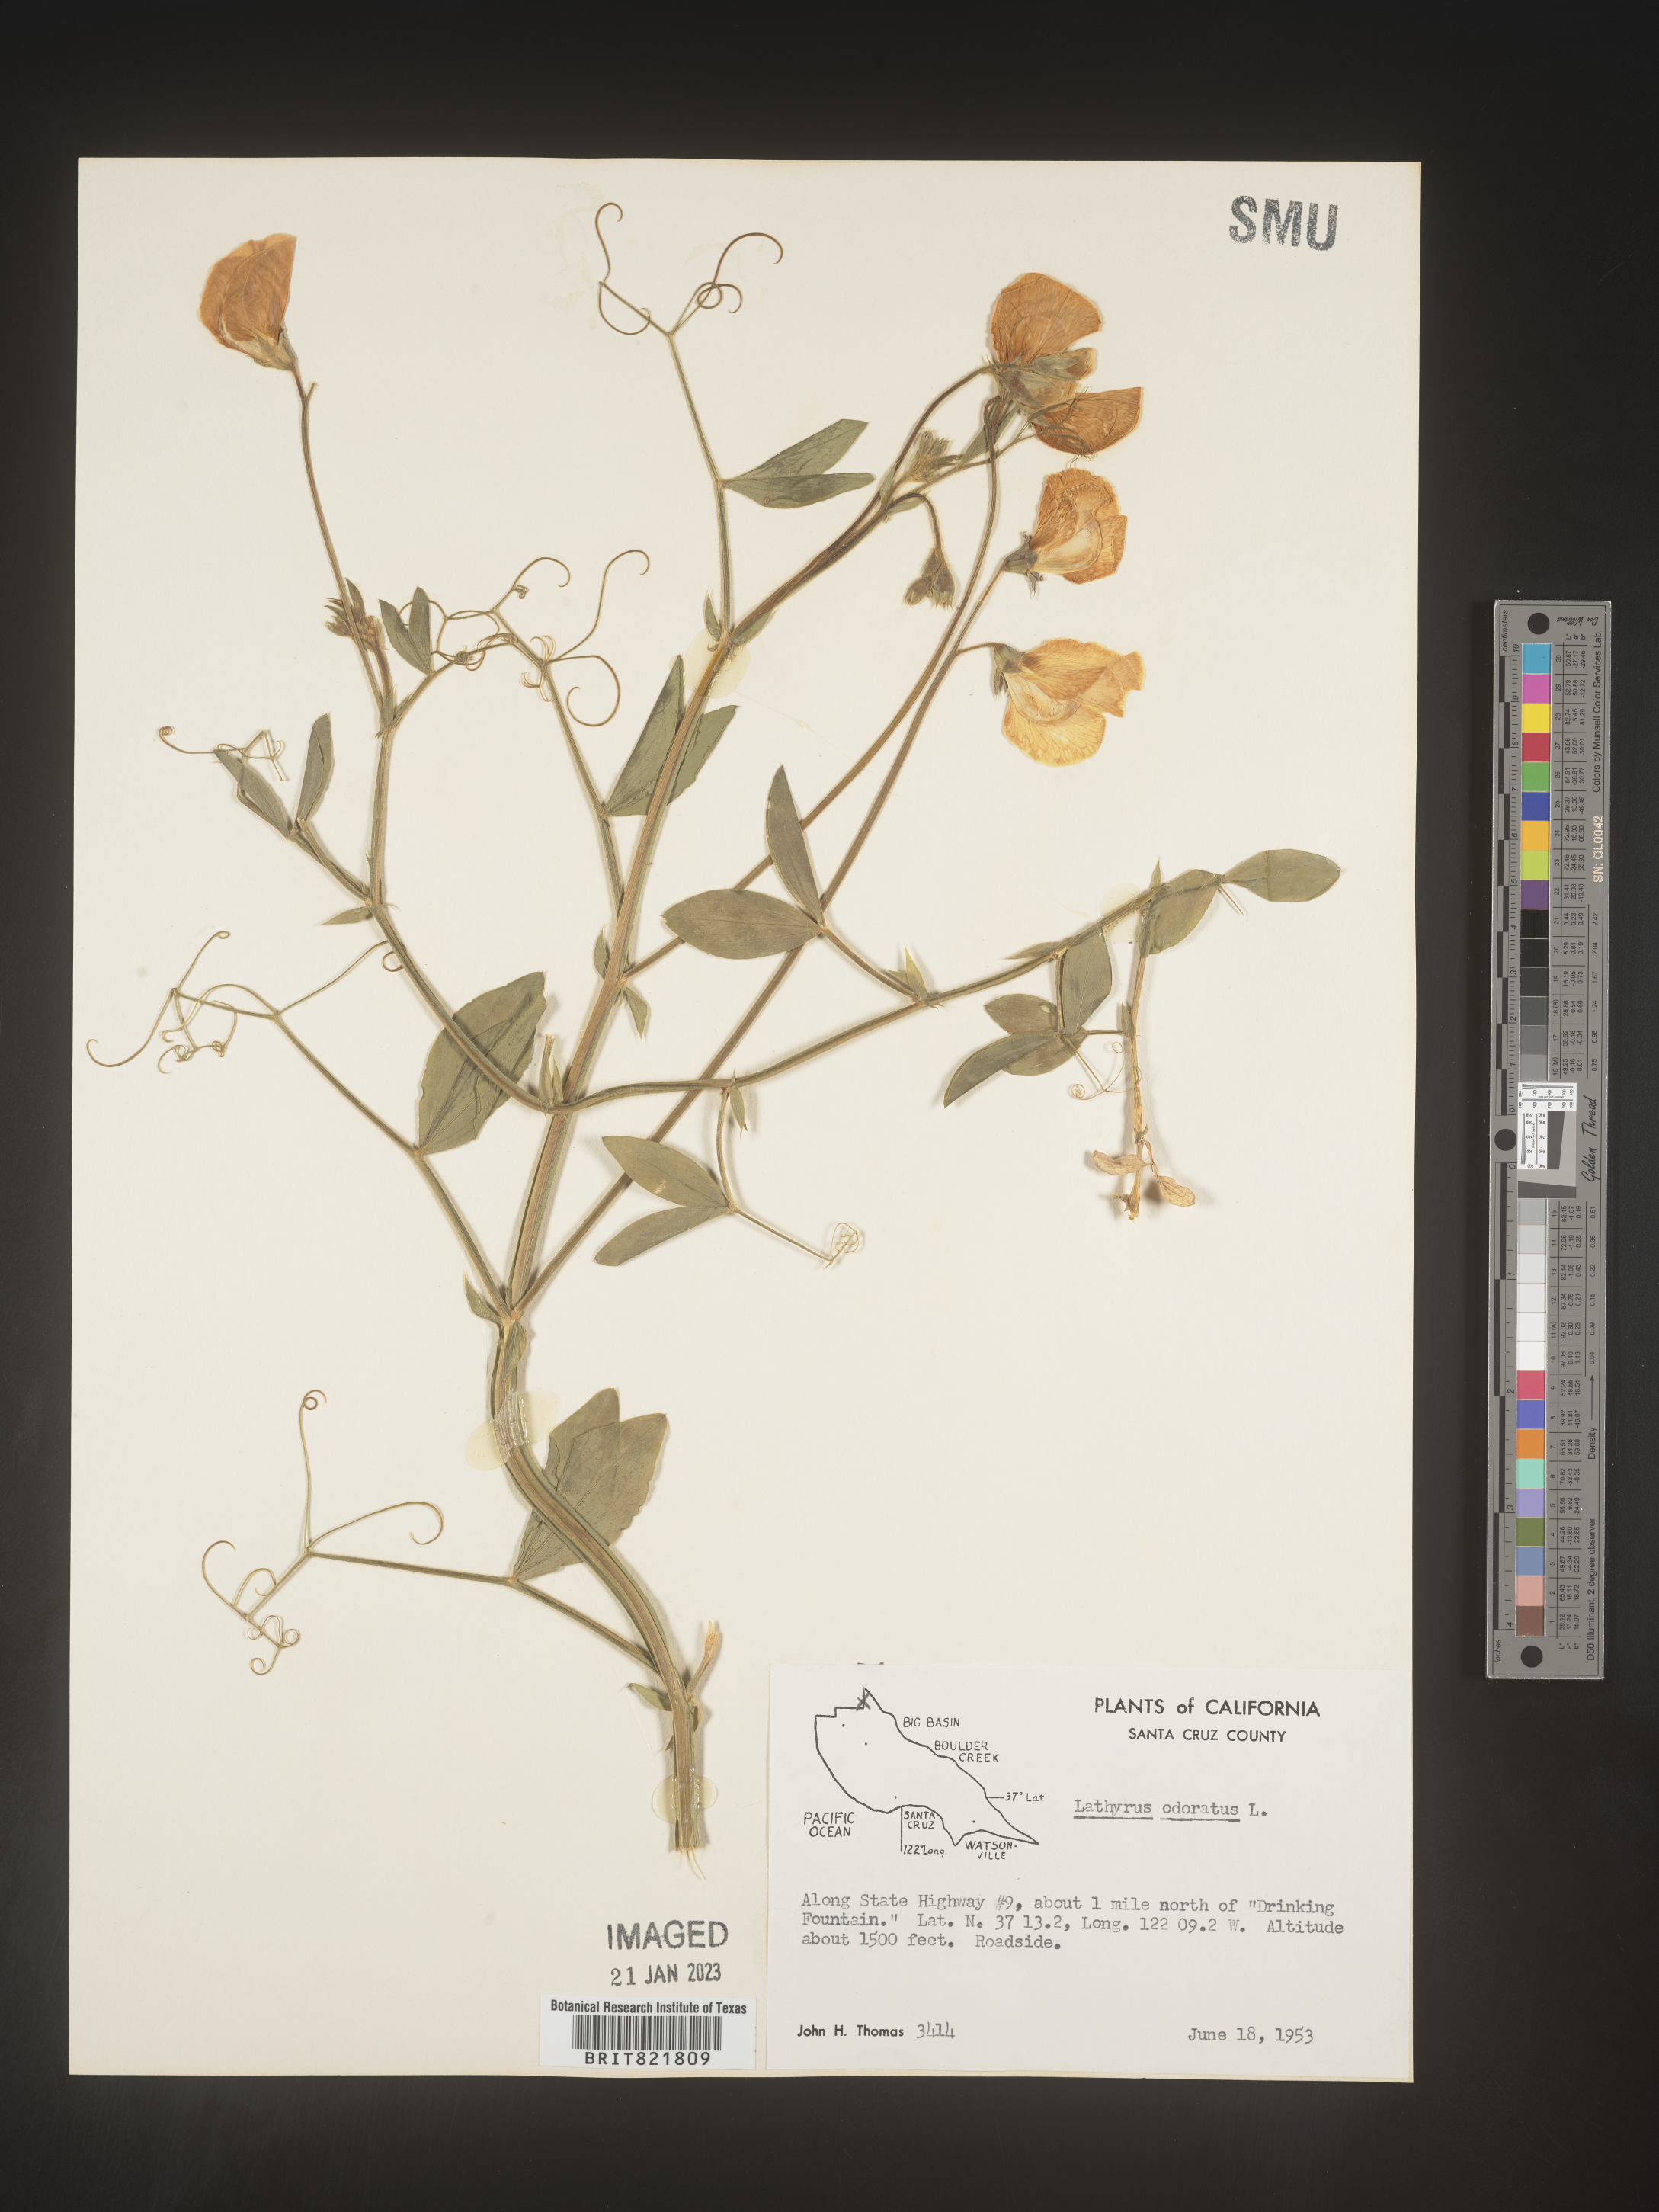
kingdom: Plantae
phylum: Tracheophyta
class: Magnoliopsida
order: Fabales
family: Fabaceae
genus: Lathyrus
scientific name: Lathyrus
